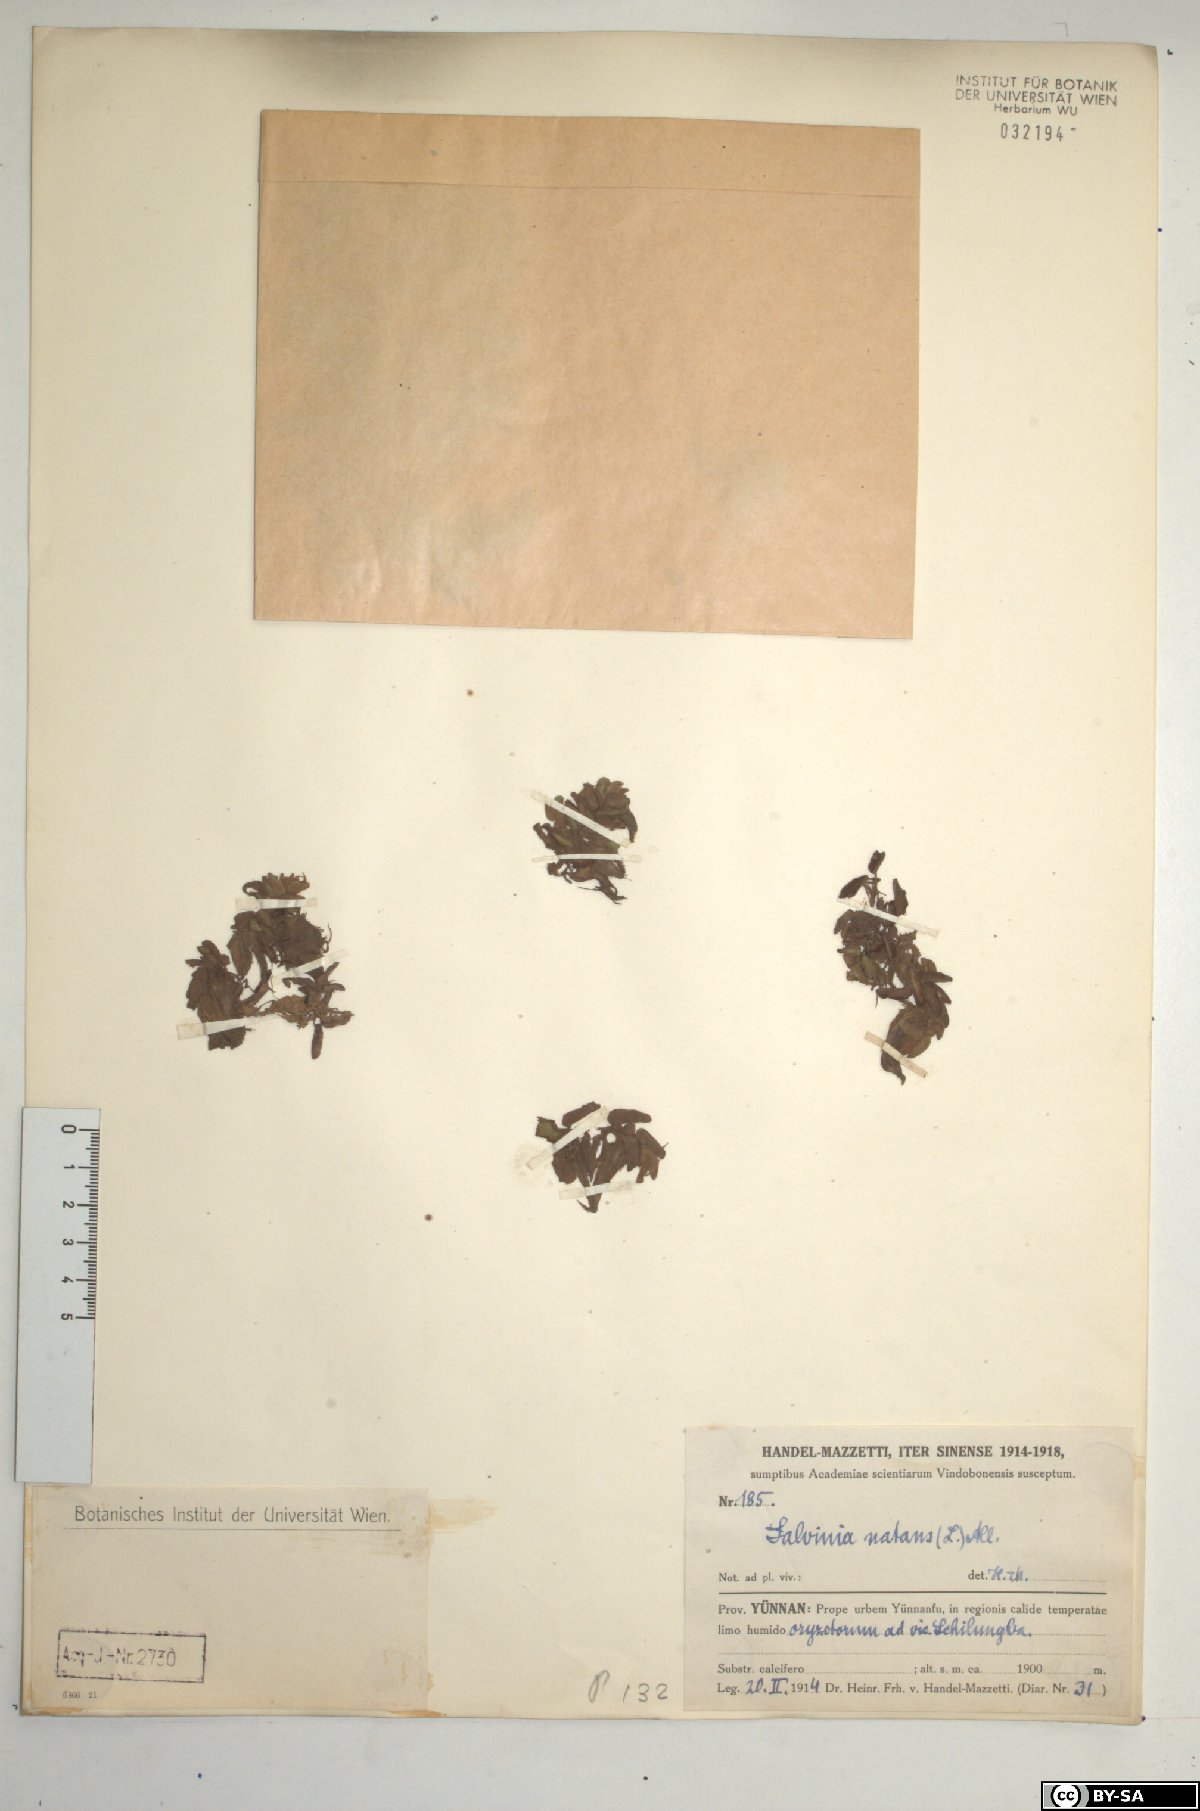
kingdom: Plantae
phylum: Tracheophyta
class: Polypodiopsida
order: Salviniales
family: Salviniaceae
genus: Salvinia
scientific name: Salvinia natans
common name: Floating fern
